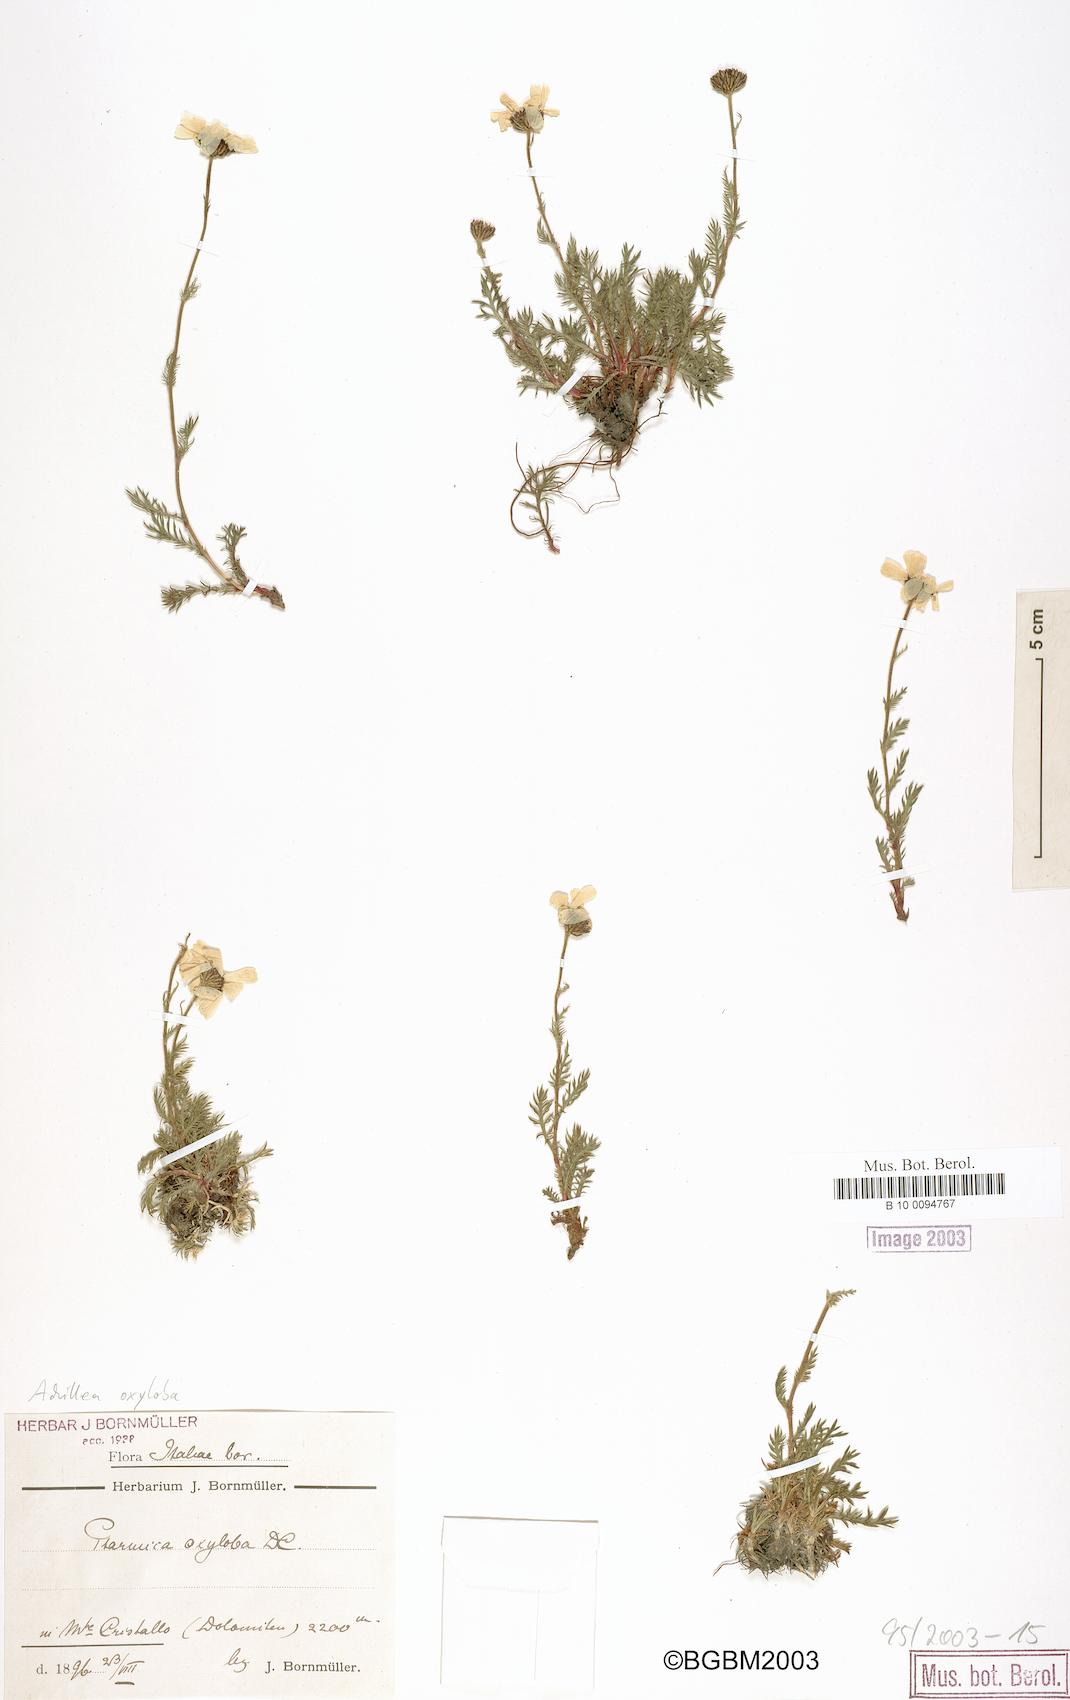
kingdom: Plantae
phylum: Tracheophyta
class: Magnoliopsida
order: Asterales
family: Asteraceae
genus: Achillea
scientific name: Achillea oxyloba
